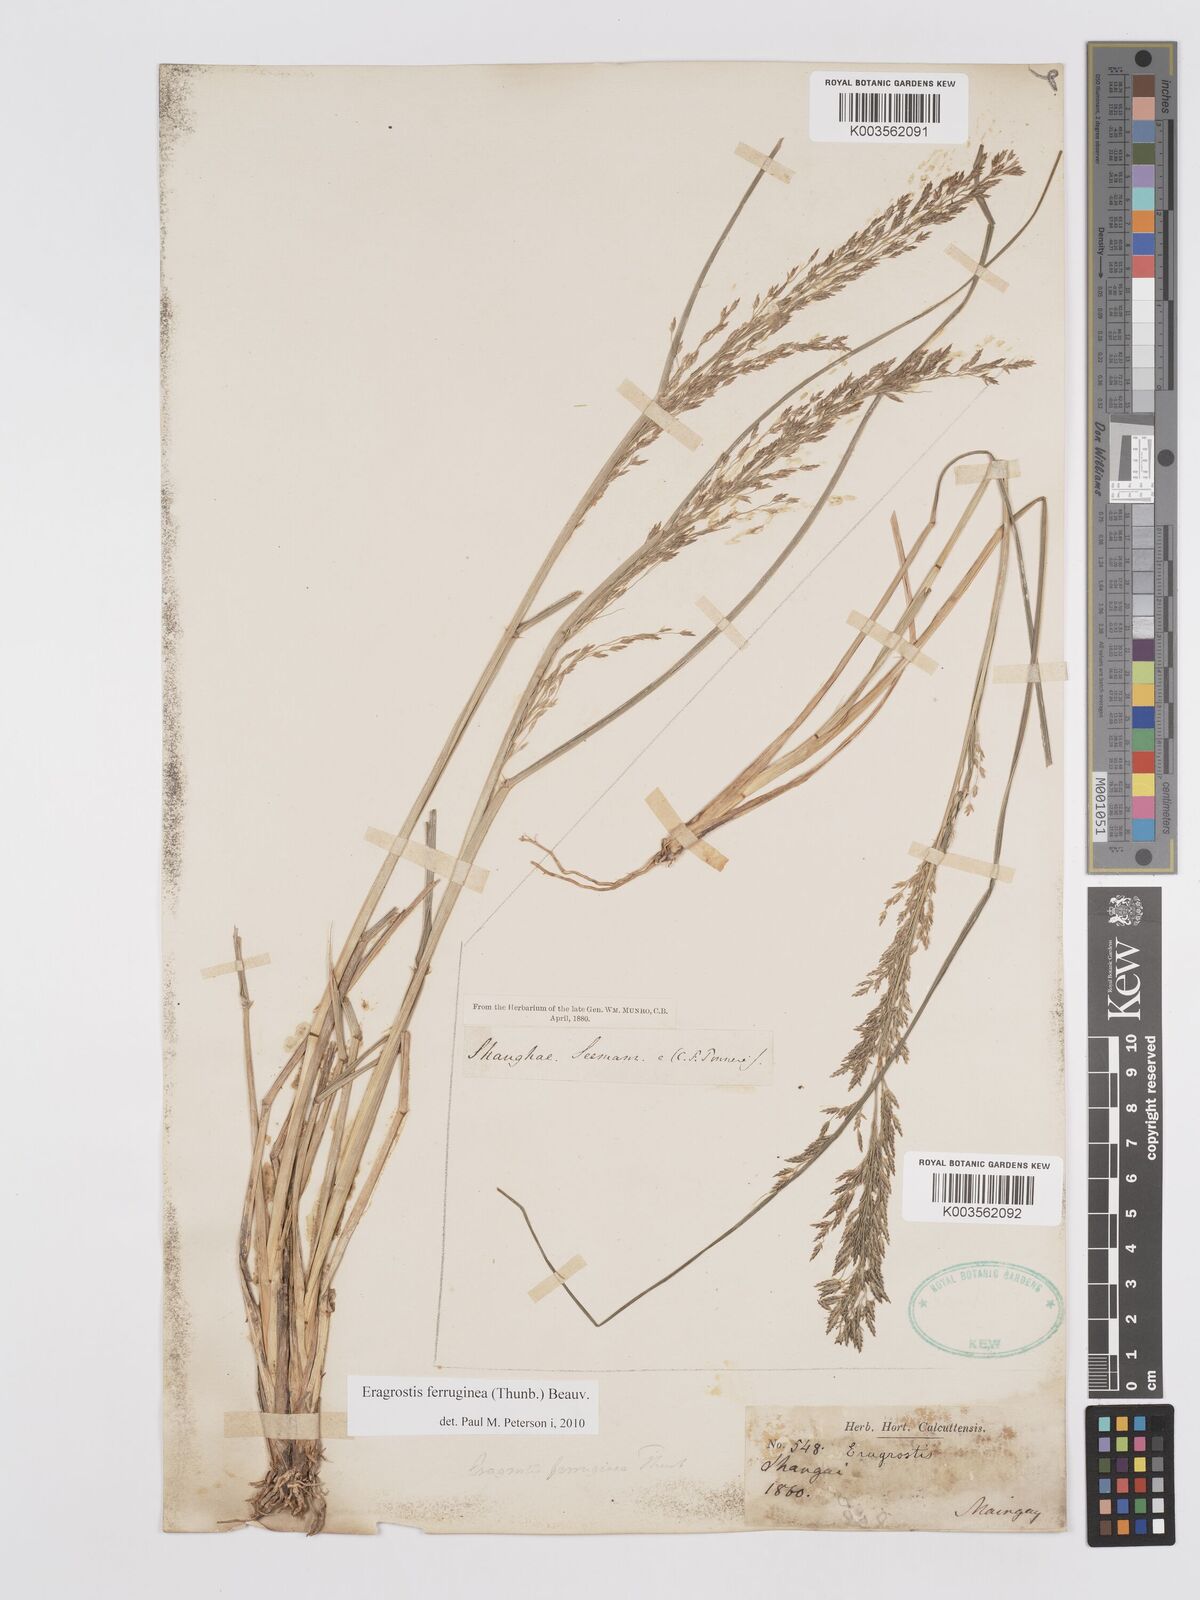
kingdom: Plantae
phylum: Tracheophyta
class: Liliopsida
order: Poales
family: Poaceae
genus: Eragrostis
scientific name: Eragrostis ferruginea
